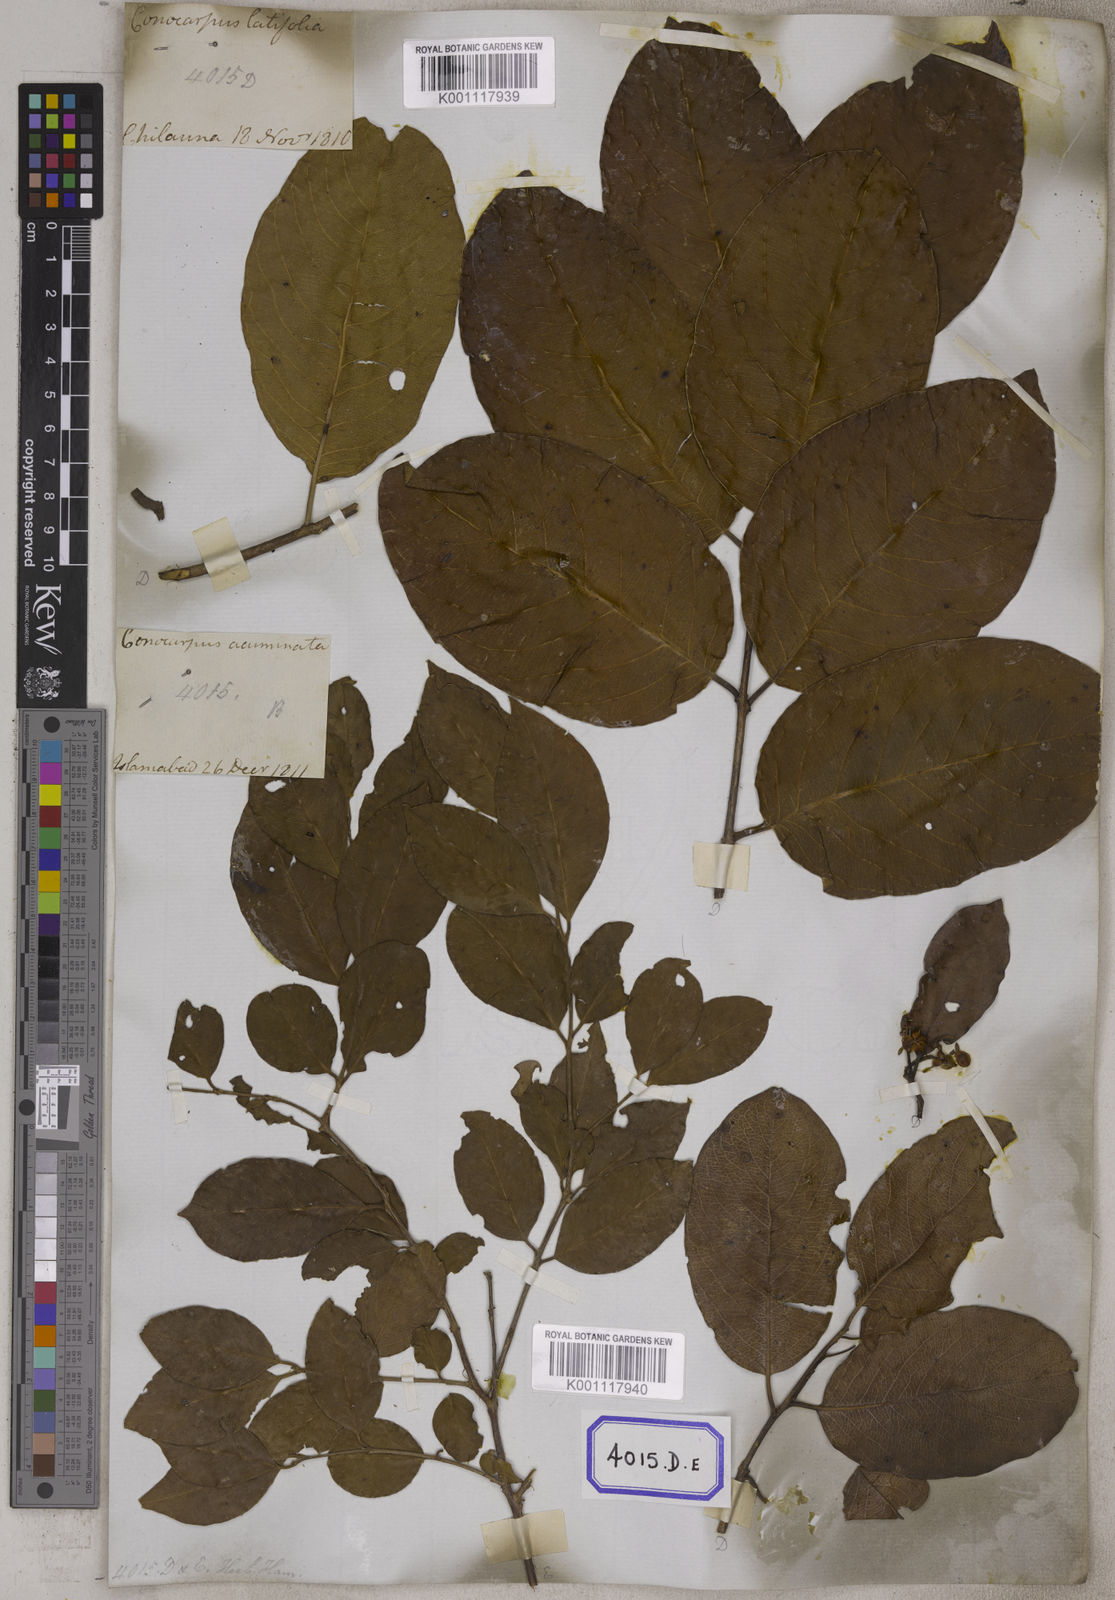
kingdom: Plantae
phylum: Tracheophyta
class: Magnoliopsida
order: Myrtales
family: Combretaceae
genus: Anogeissus
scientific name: Anogeissus
